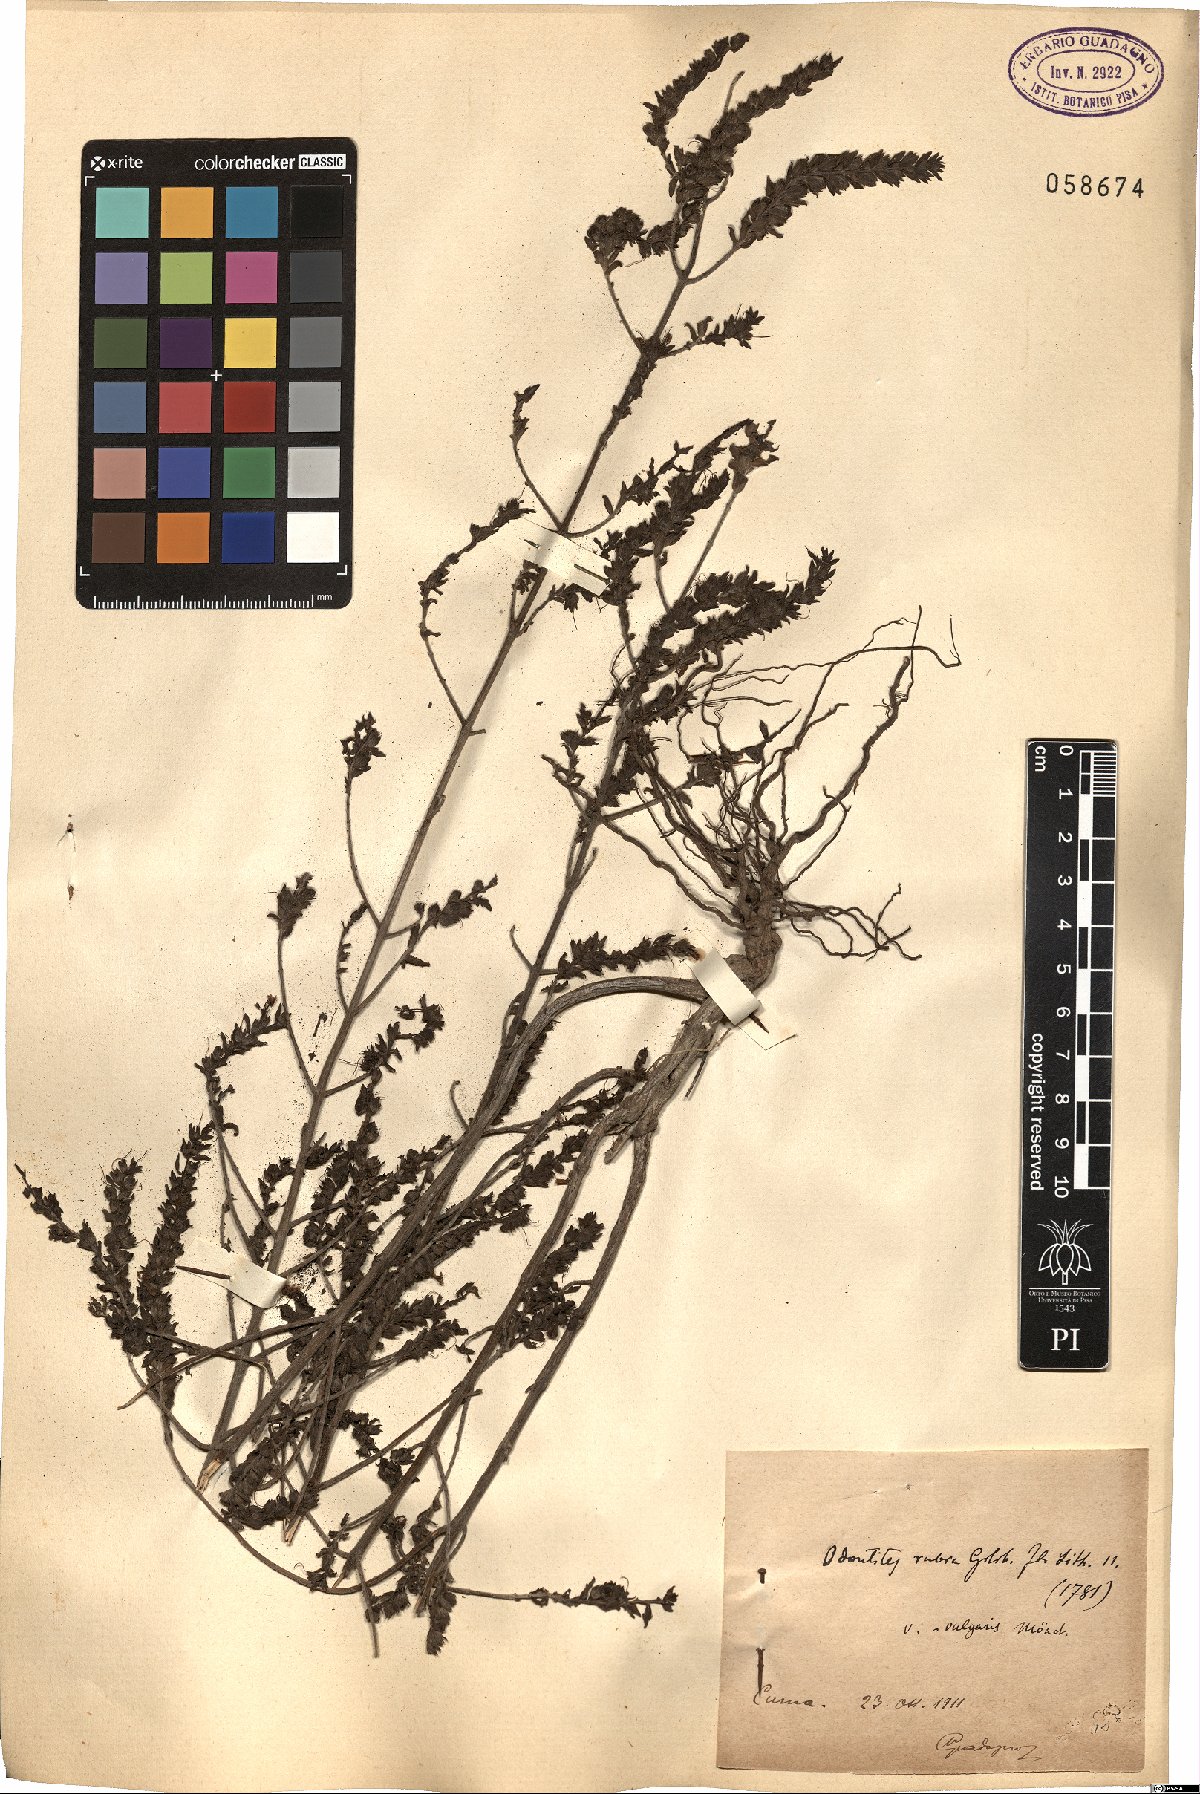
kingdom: Plantae
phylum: Tracheophyta
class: Magnoliopsida
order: Lamiales
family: Orobanchaceae
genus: Odontites
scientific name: Odontites vulgaris
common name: Broomrape
